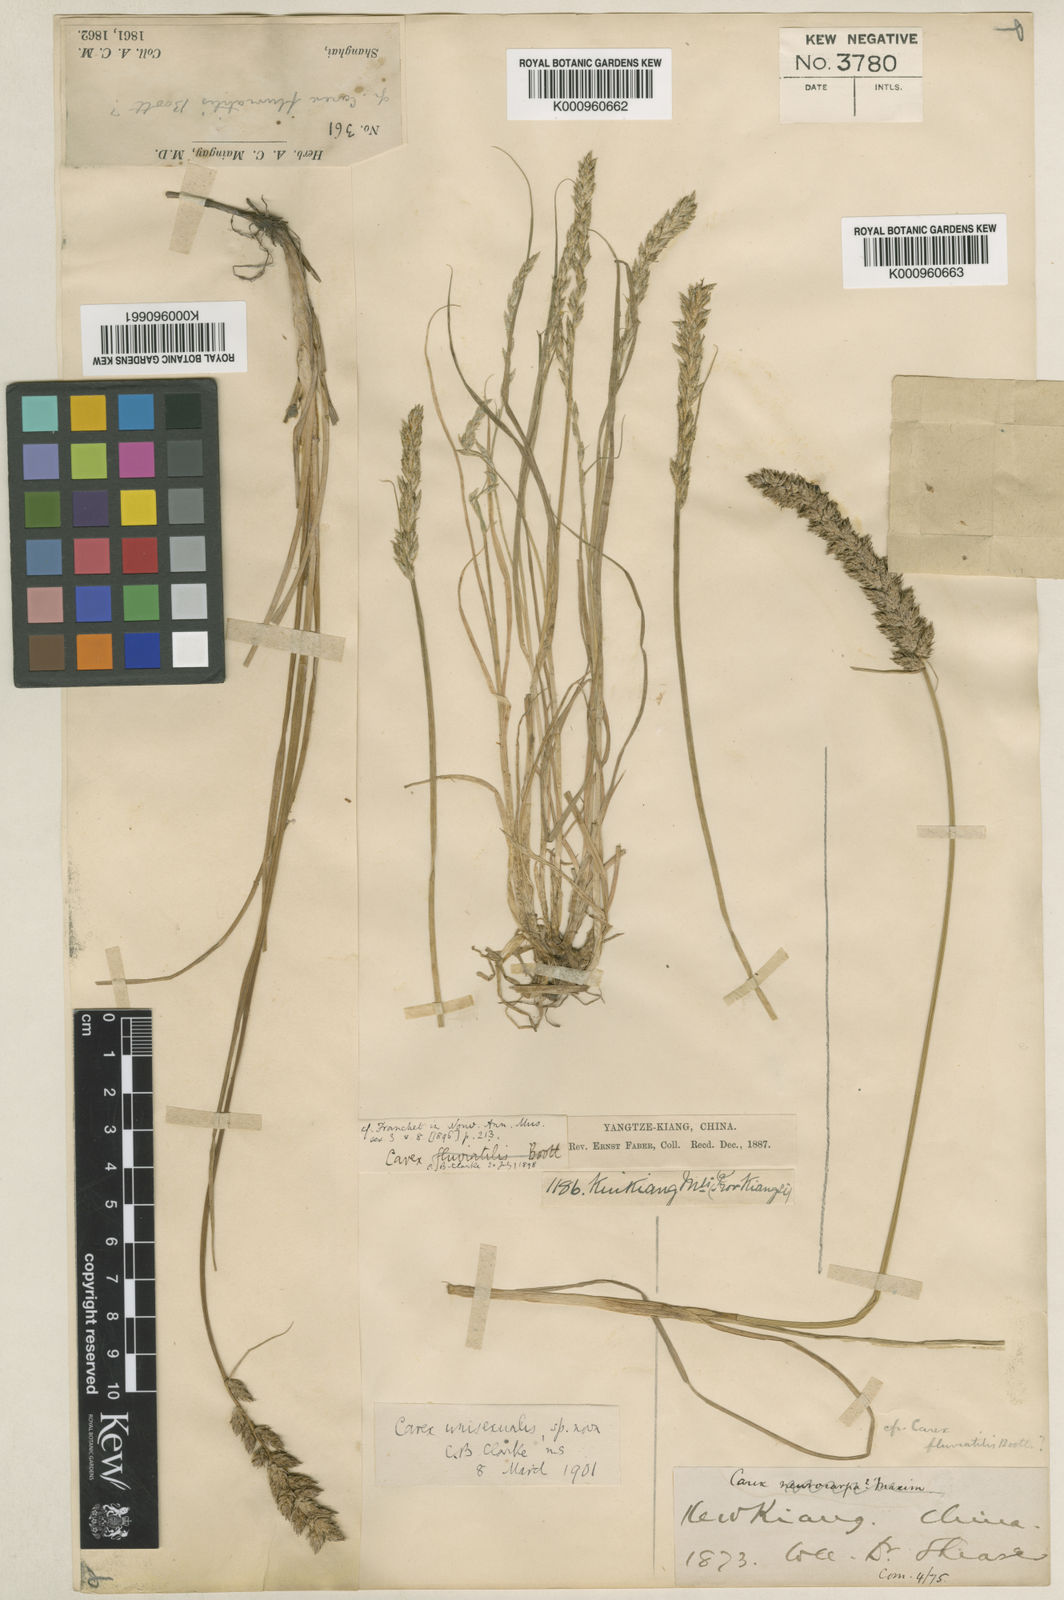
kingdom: Plantae
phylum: Tracheophyta
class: Liliopsida
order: Poales
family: Cyperaceae
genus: Carex
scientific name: Carex fluviatilis
